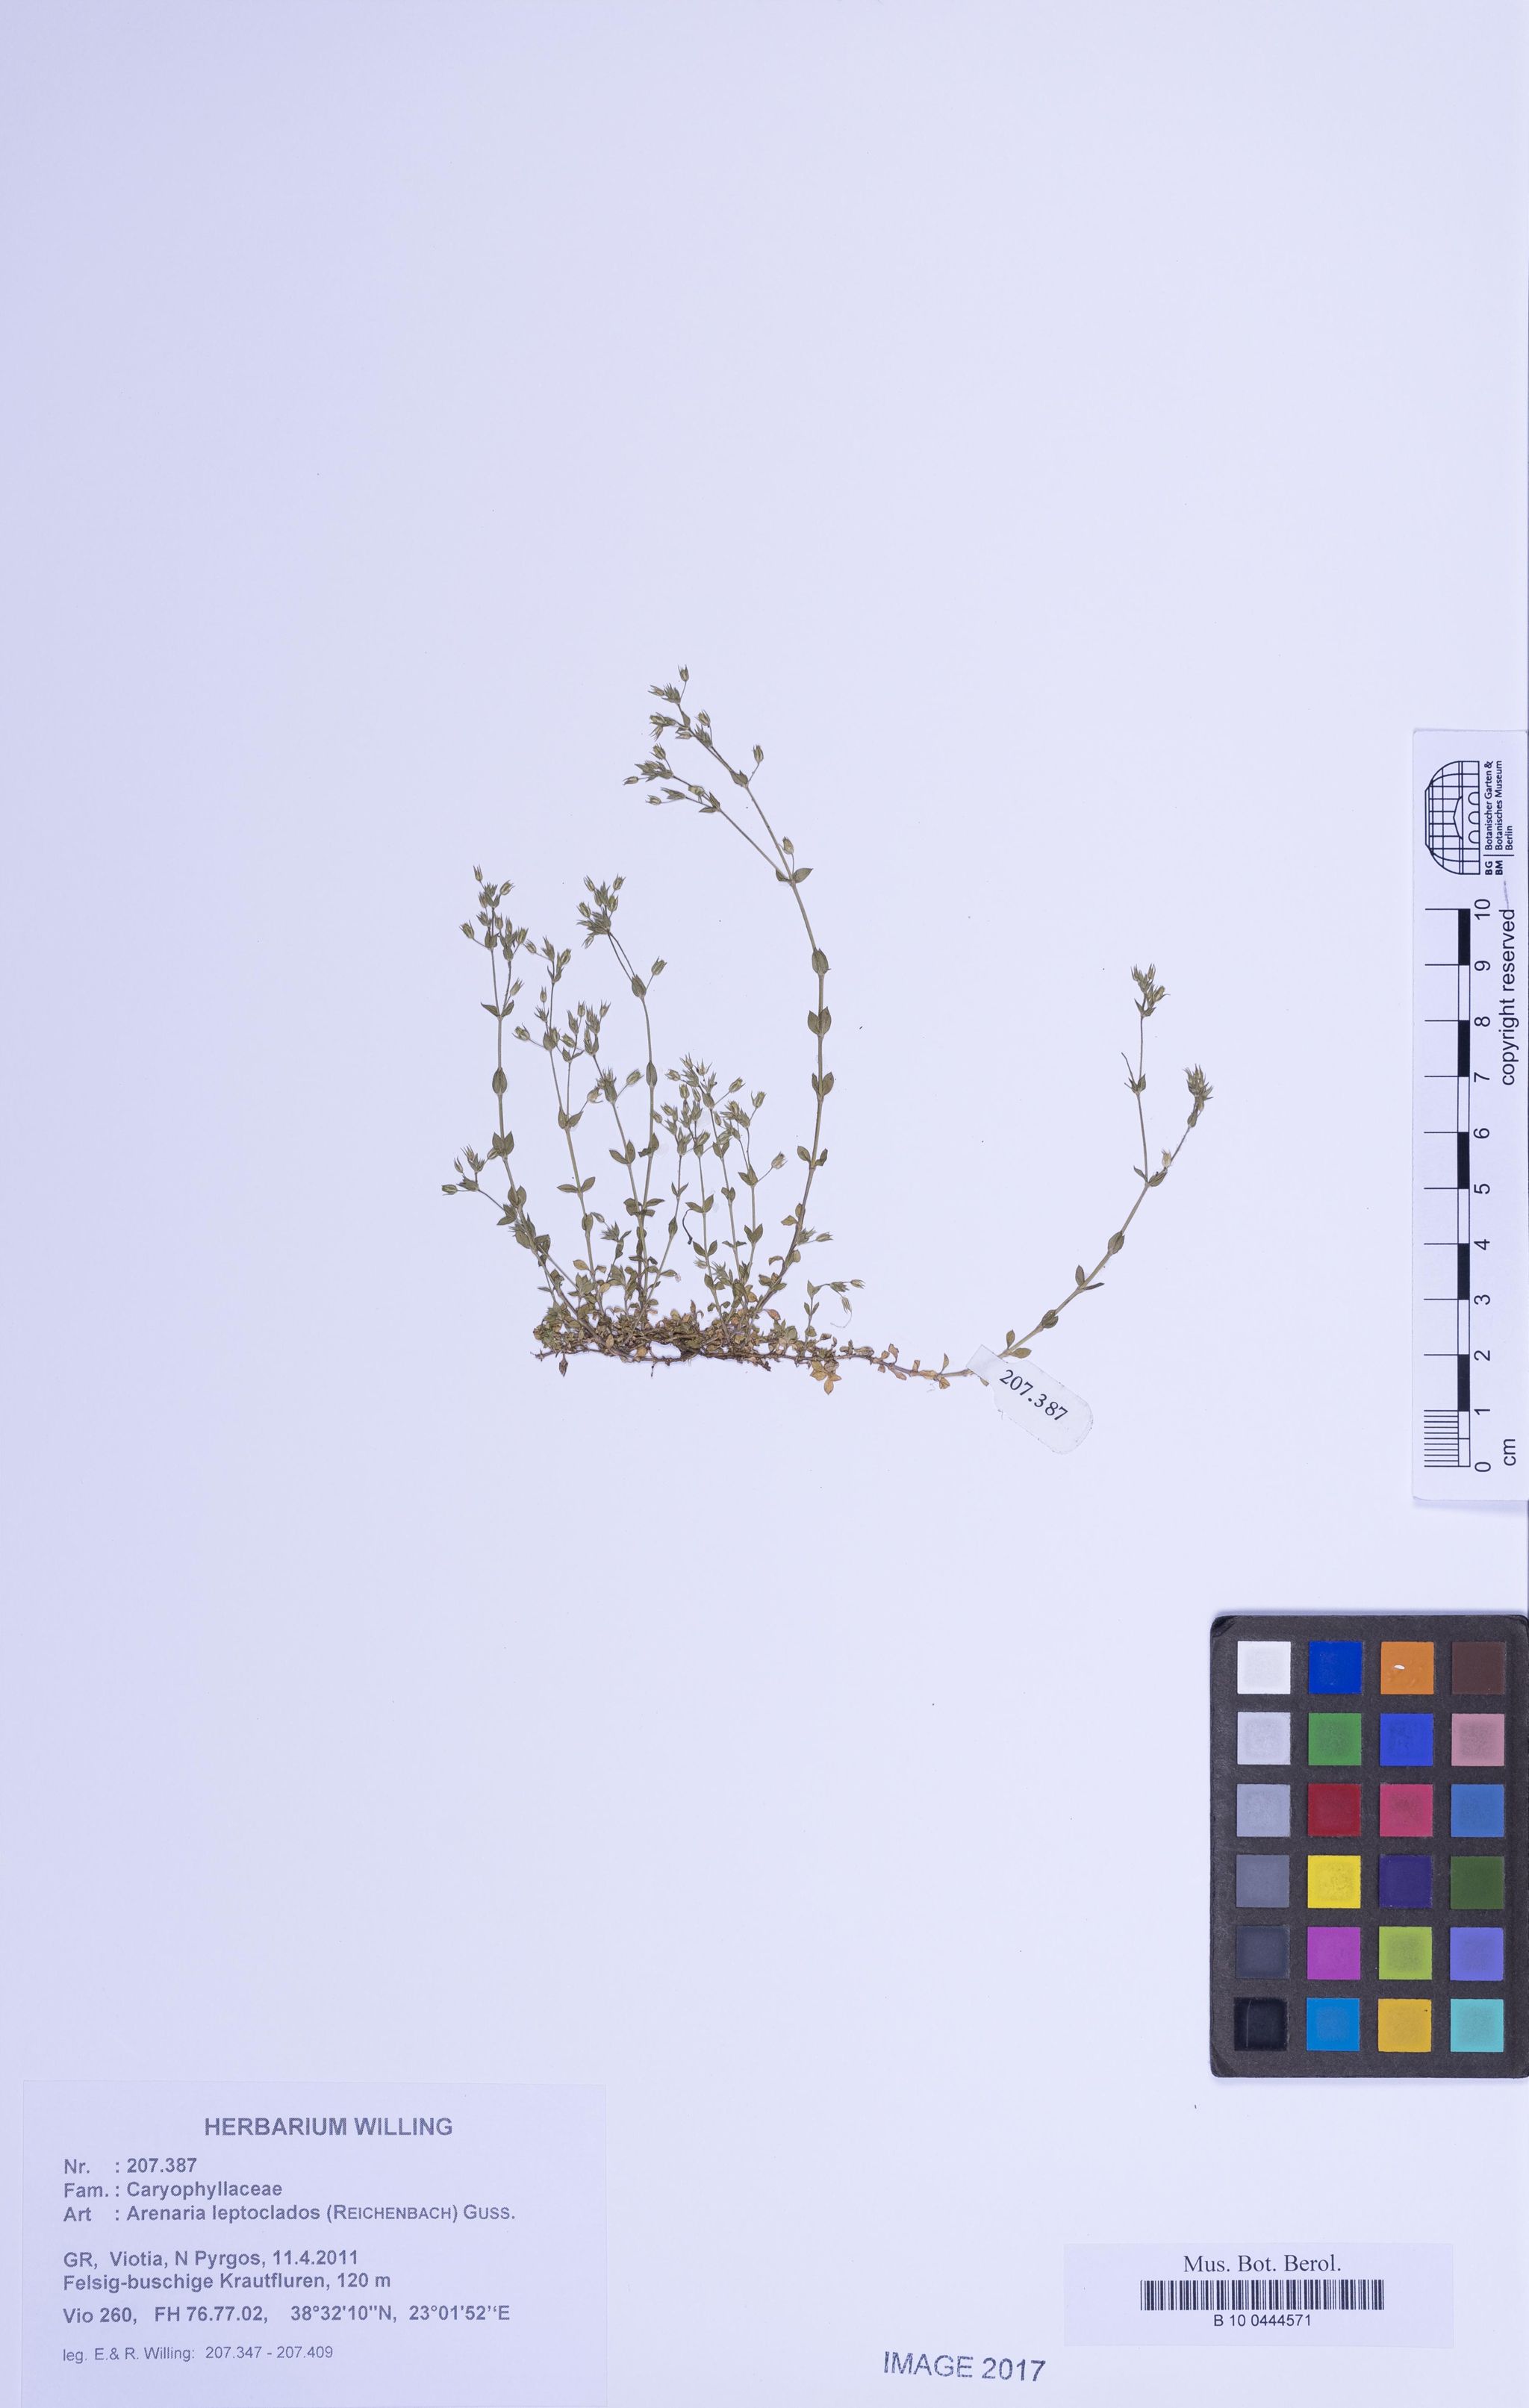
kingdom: Plantae
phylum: Tracheophyta
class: Magnoliopsida
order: Caryophyllales
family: Caryophyllaceae
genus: Arenaria
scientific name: Arenaria leptoclados
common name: Thyme-leaved sandwort
